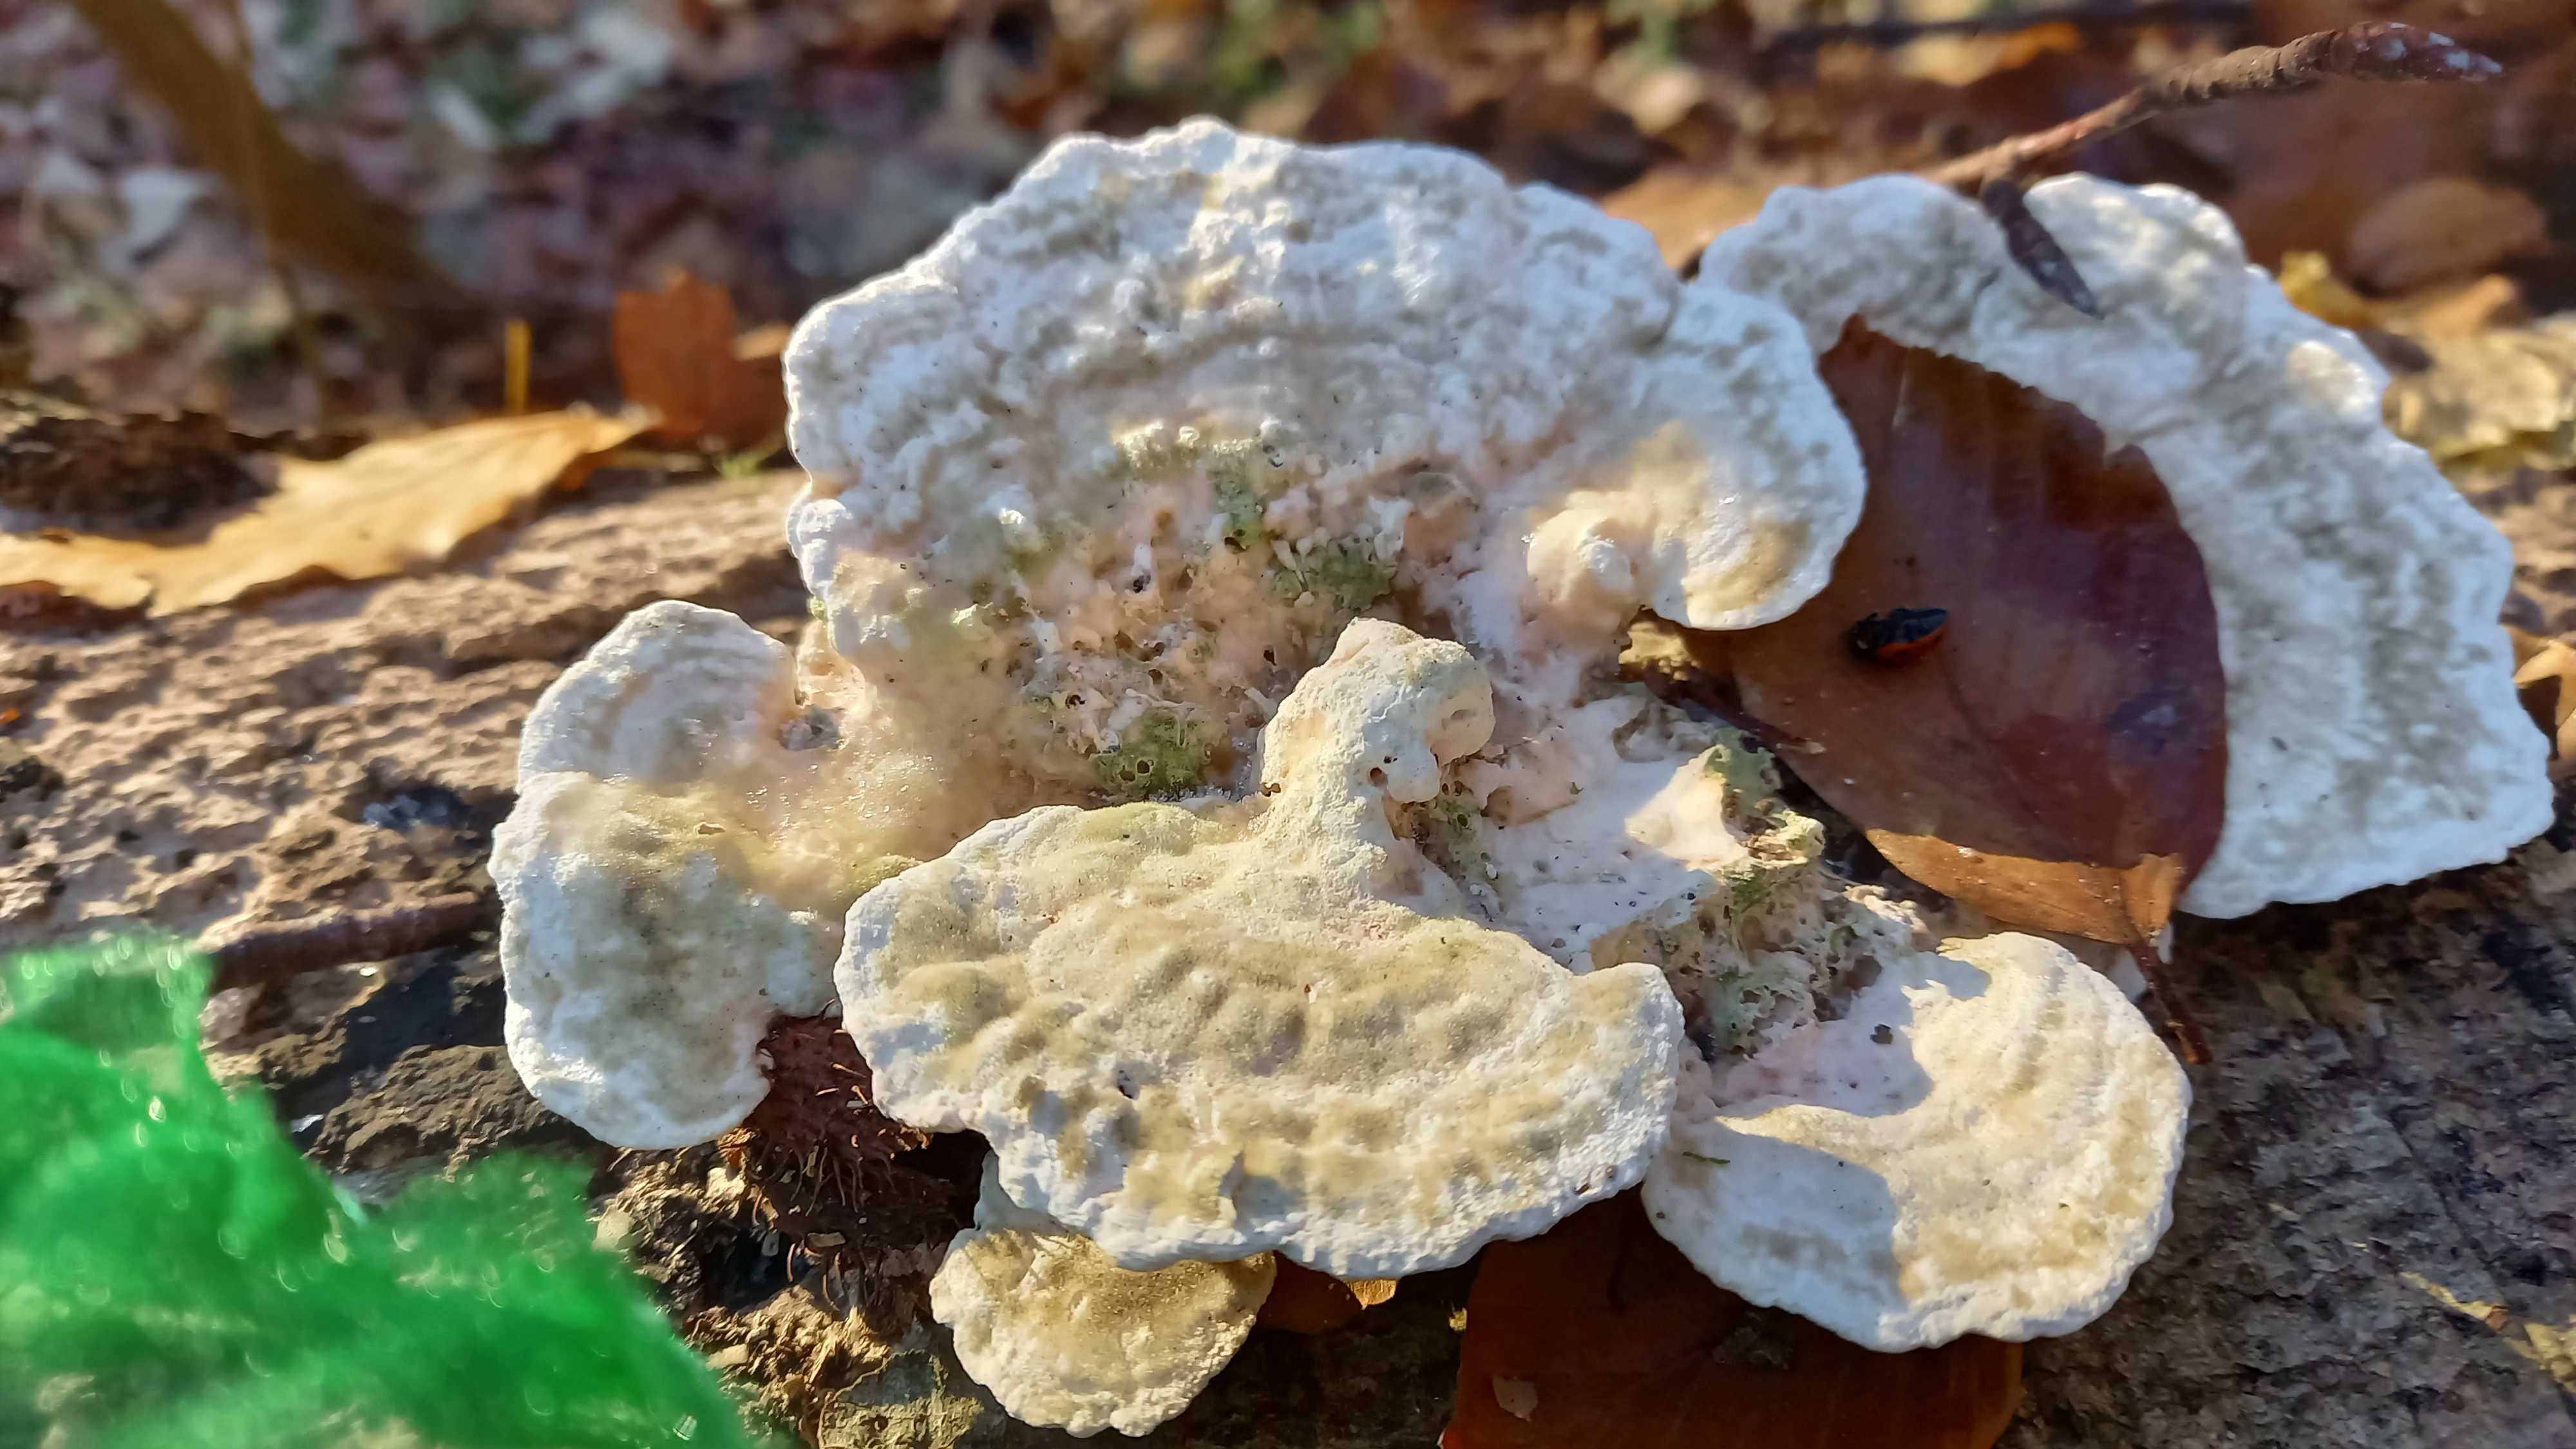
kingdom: Fungi
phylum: Basidiomycota
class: Agaricomycetes
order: Polyporales
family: Polyporaceae
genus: Trametes
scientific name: Trametes gibbosa
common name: puklet læderporesvamp
